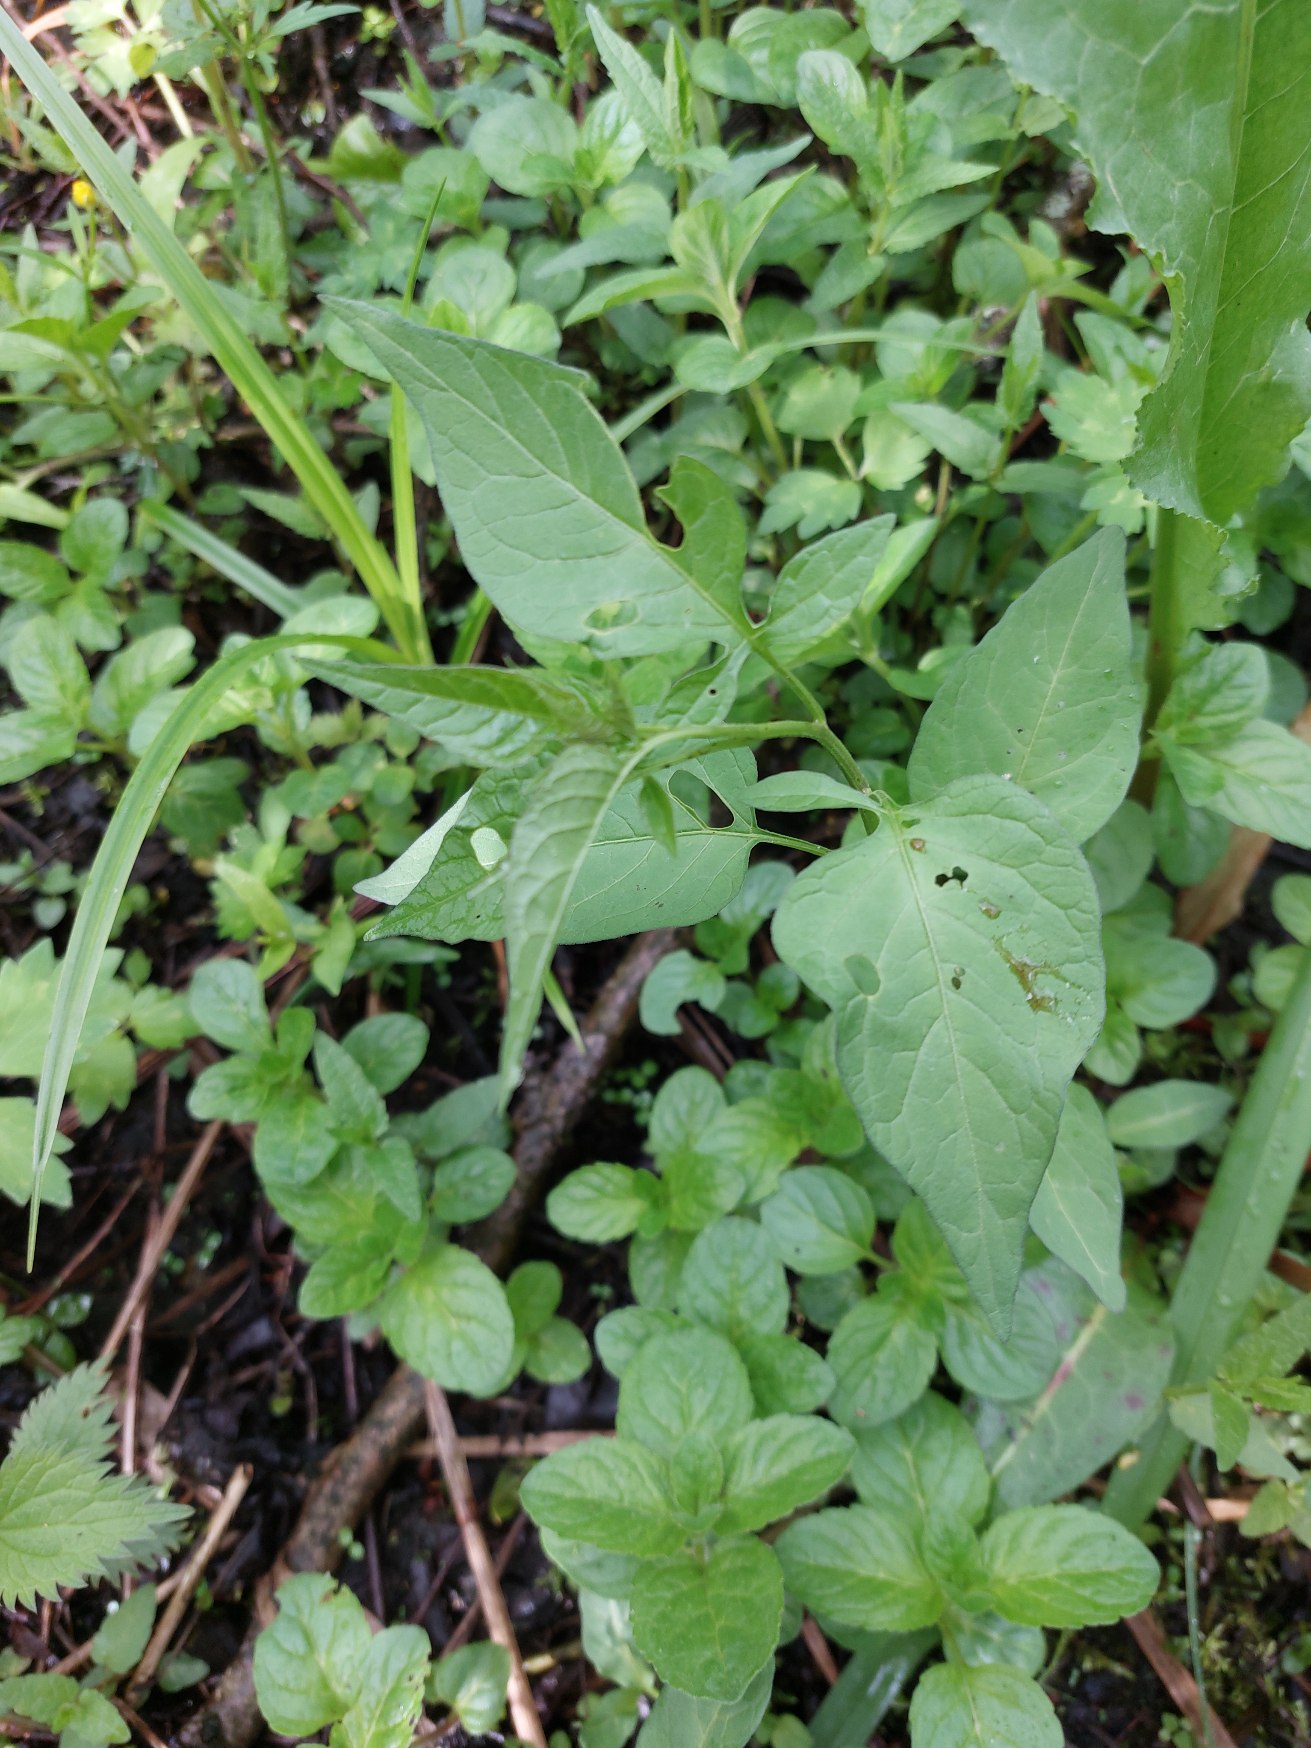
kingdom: Plantae
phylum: Tracheophyta
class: Magnoliopsida
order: Solanales
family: Solanaceae
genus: Solanum
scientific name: Solanum dulcamara
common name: Bittersød natskygge
